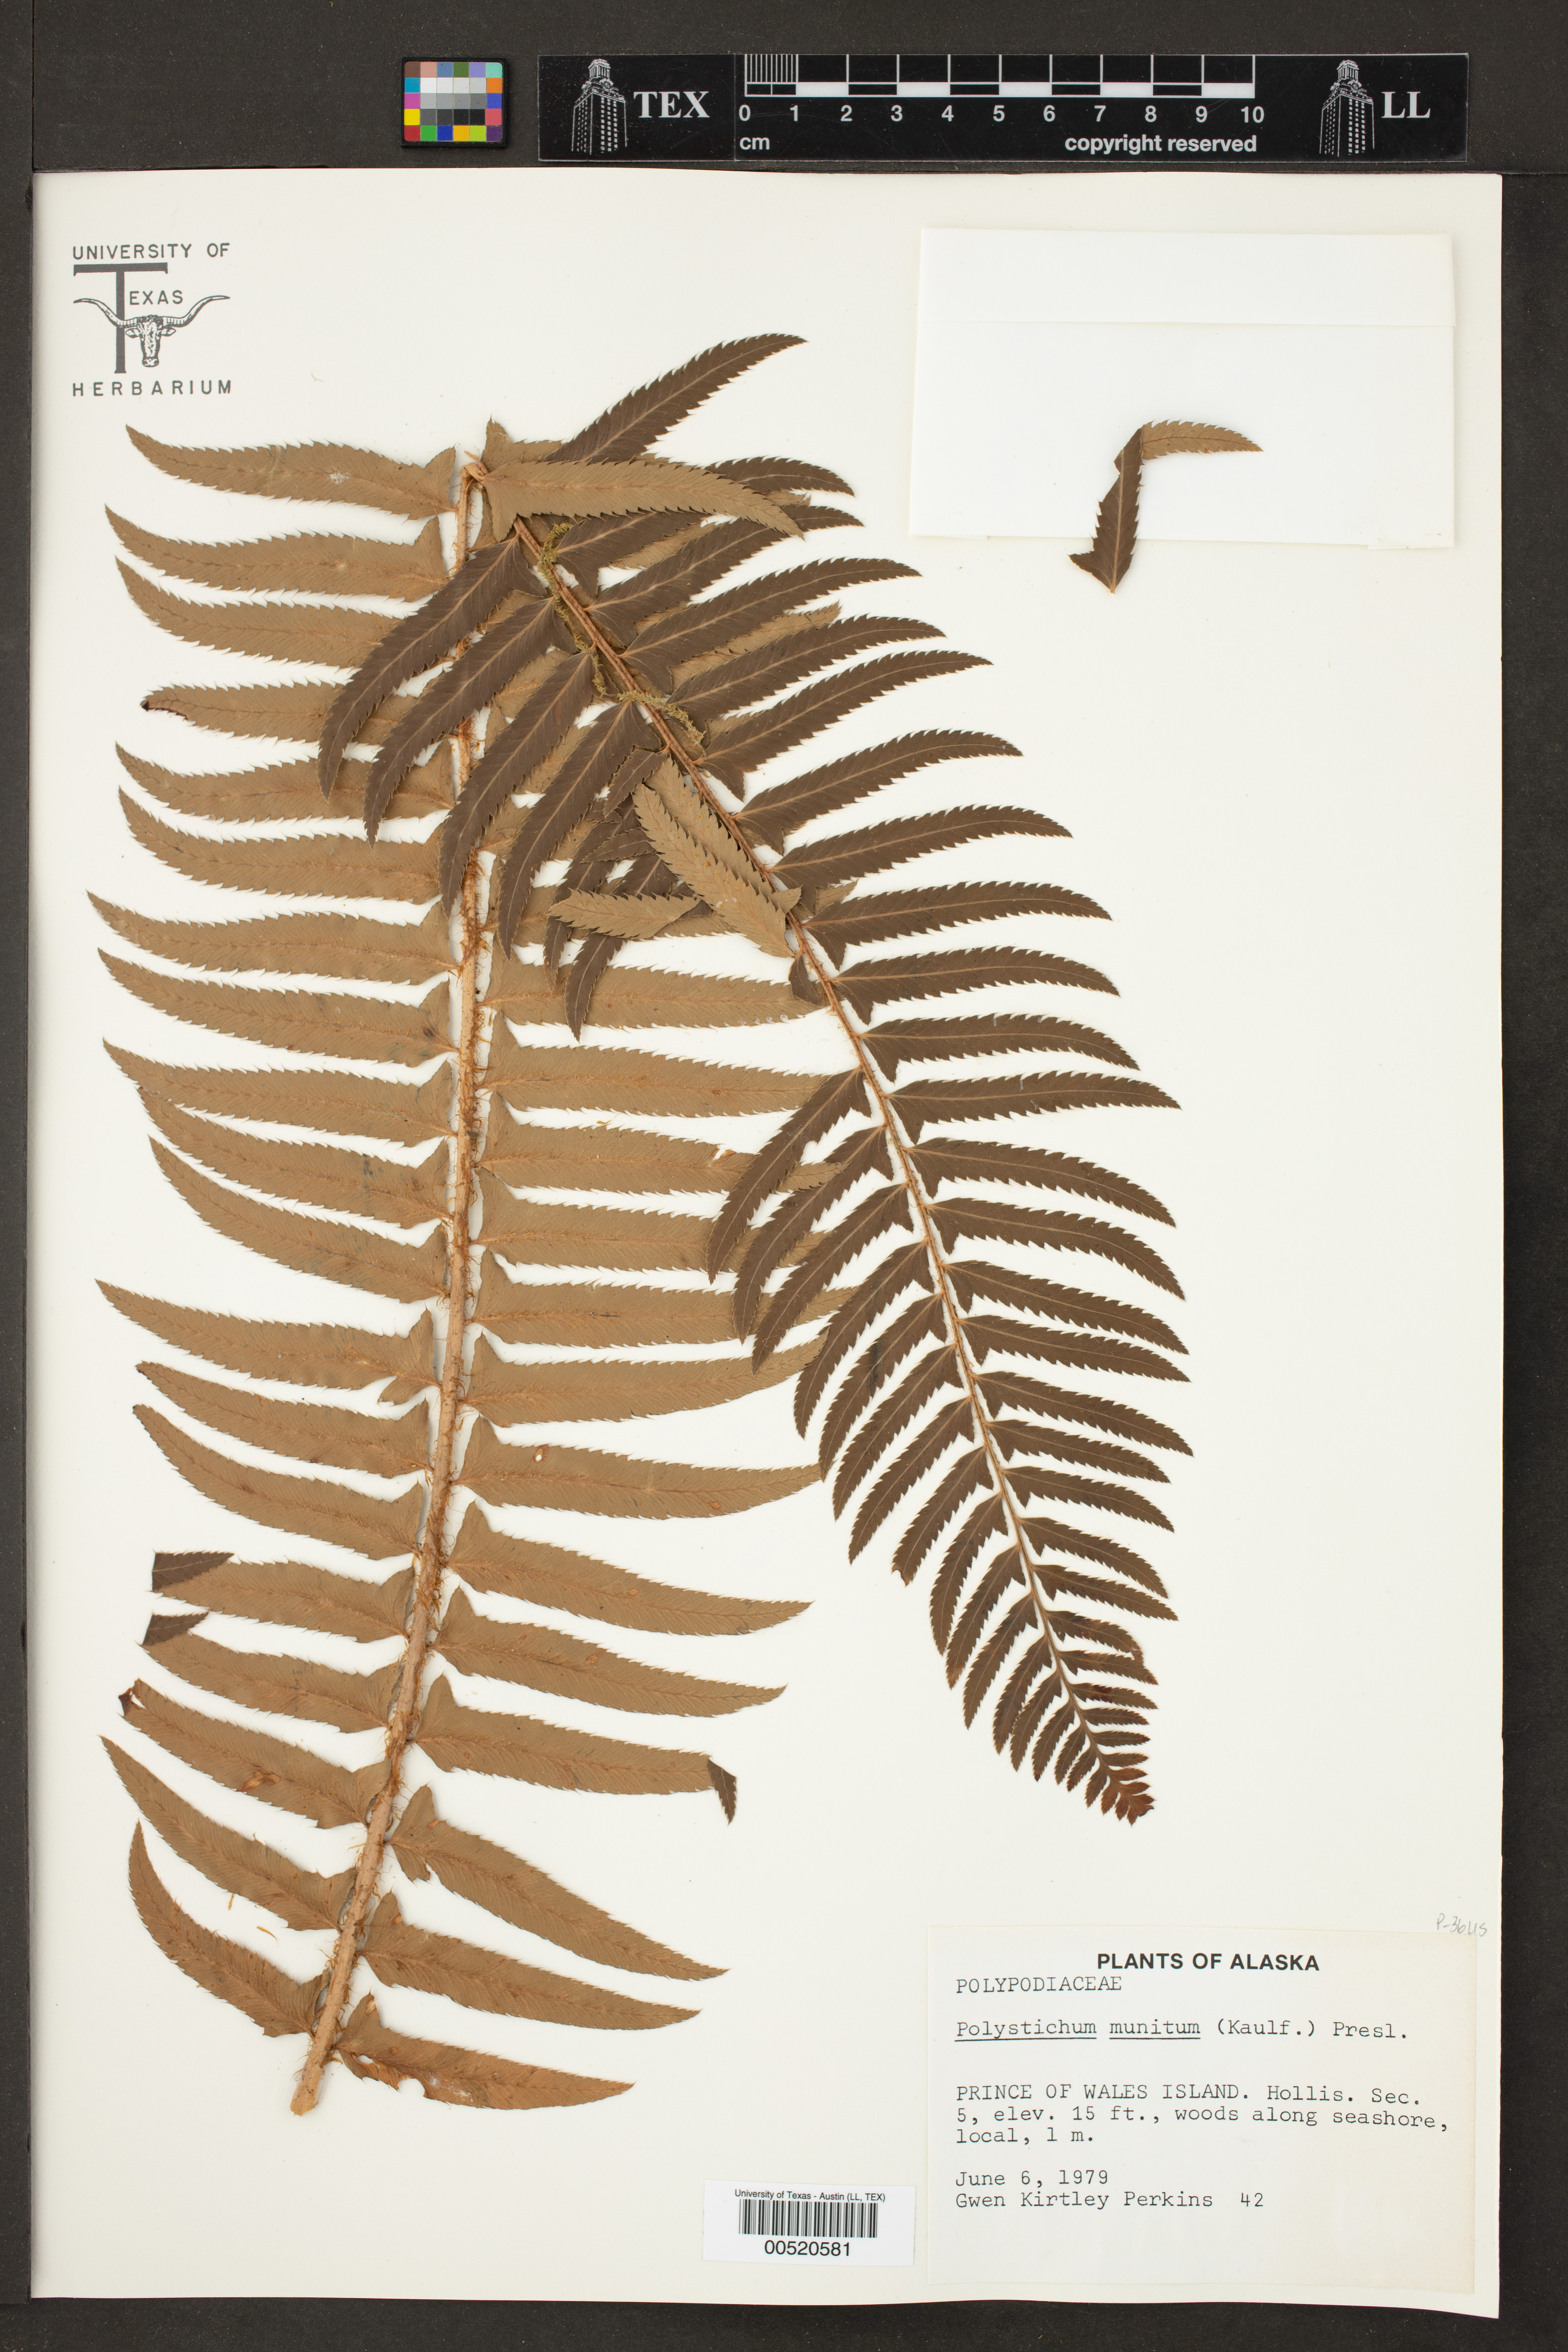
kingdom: Plantae
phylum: Tracheophyta
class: Polypodiopsida
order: Polypodiales
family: Dryopteridaceae
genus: Polystichum
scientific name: Polystichum munitum
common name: Western sword-fern
